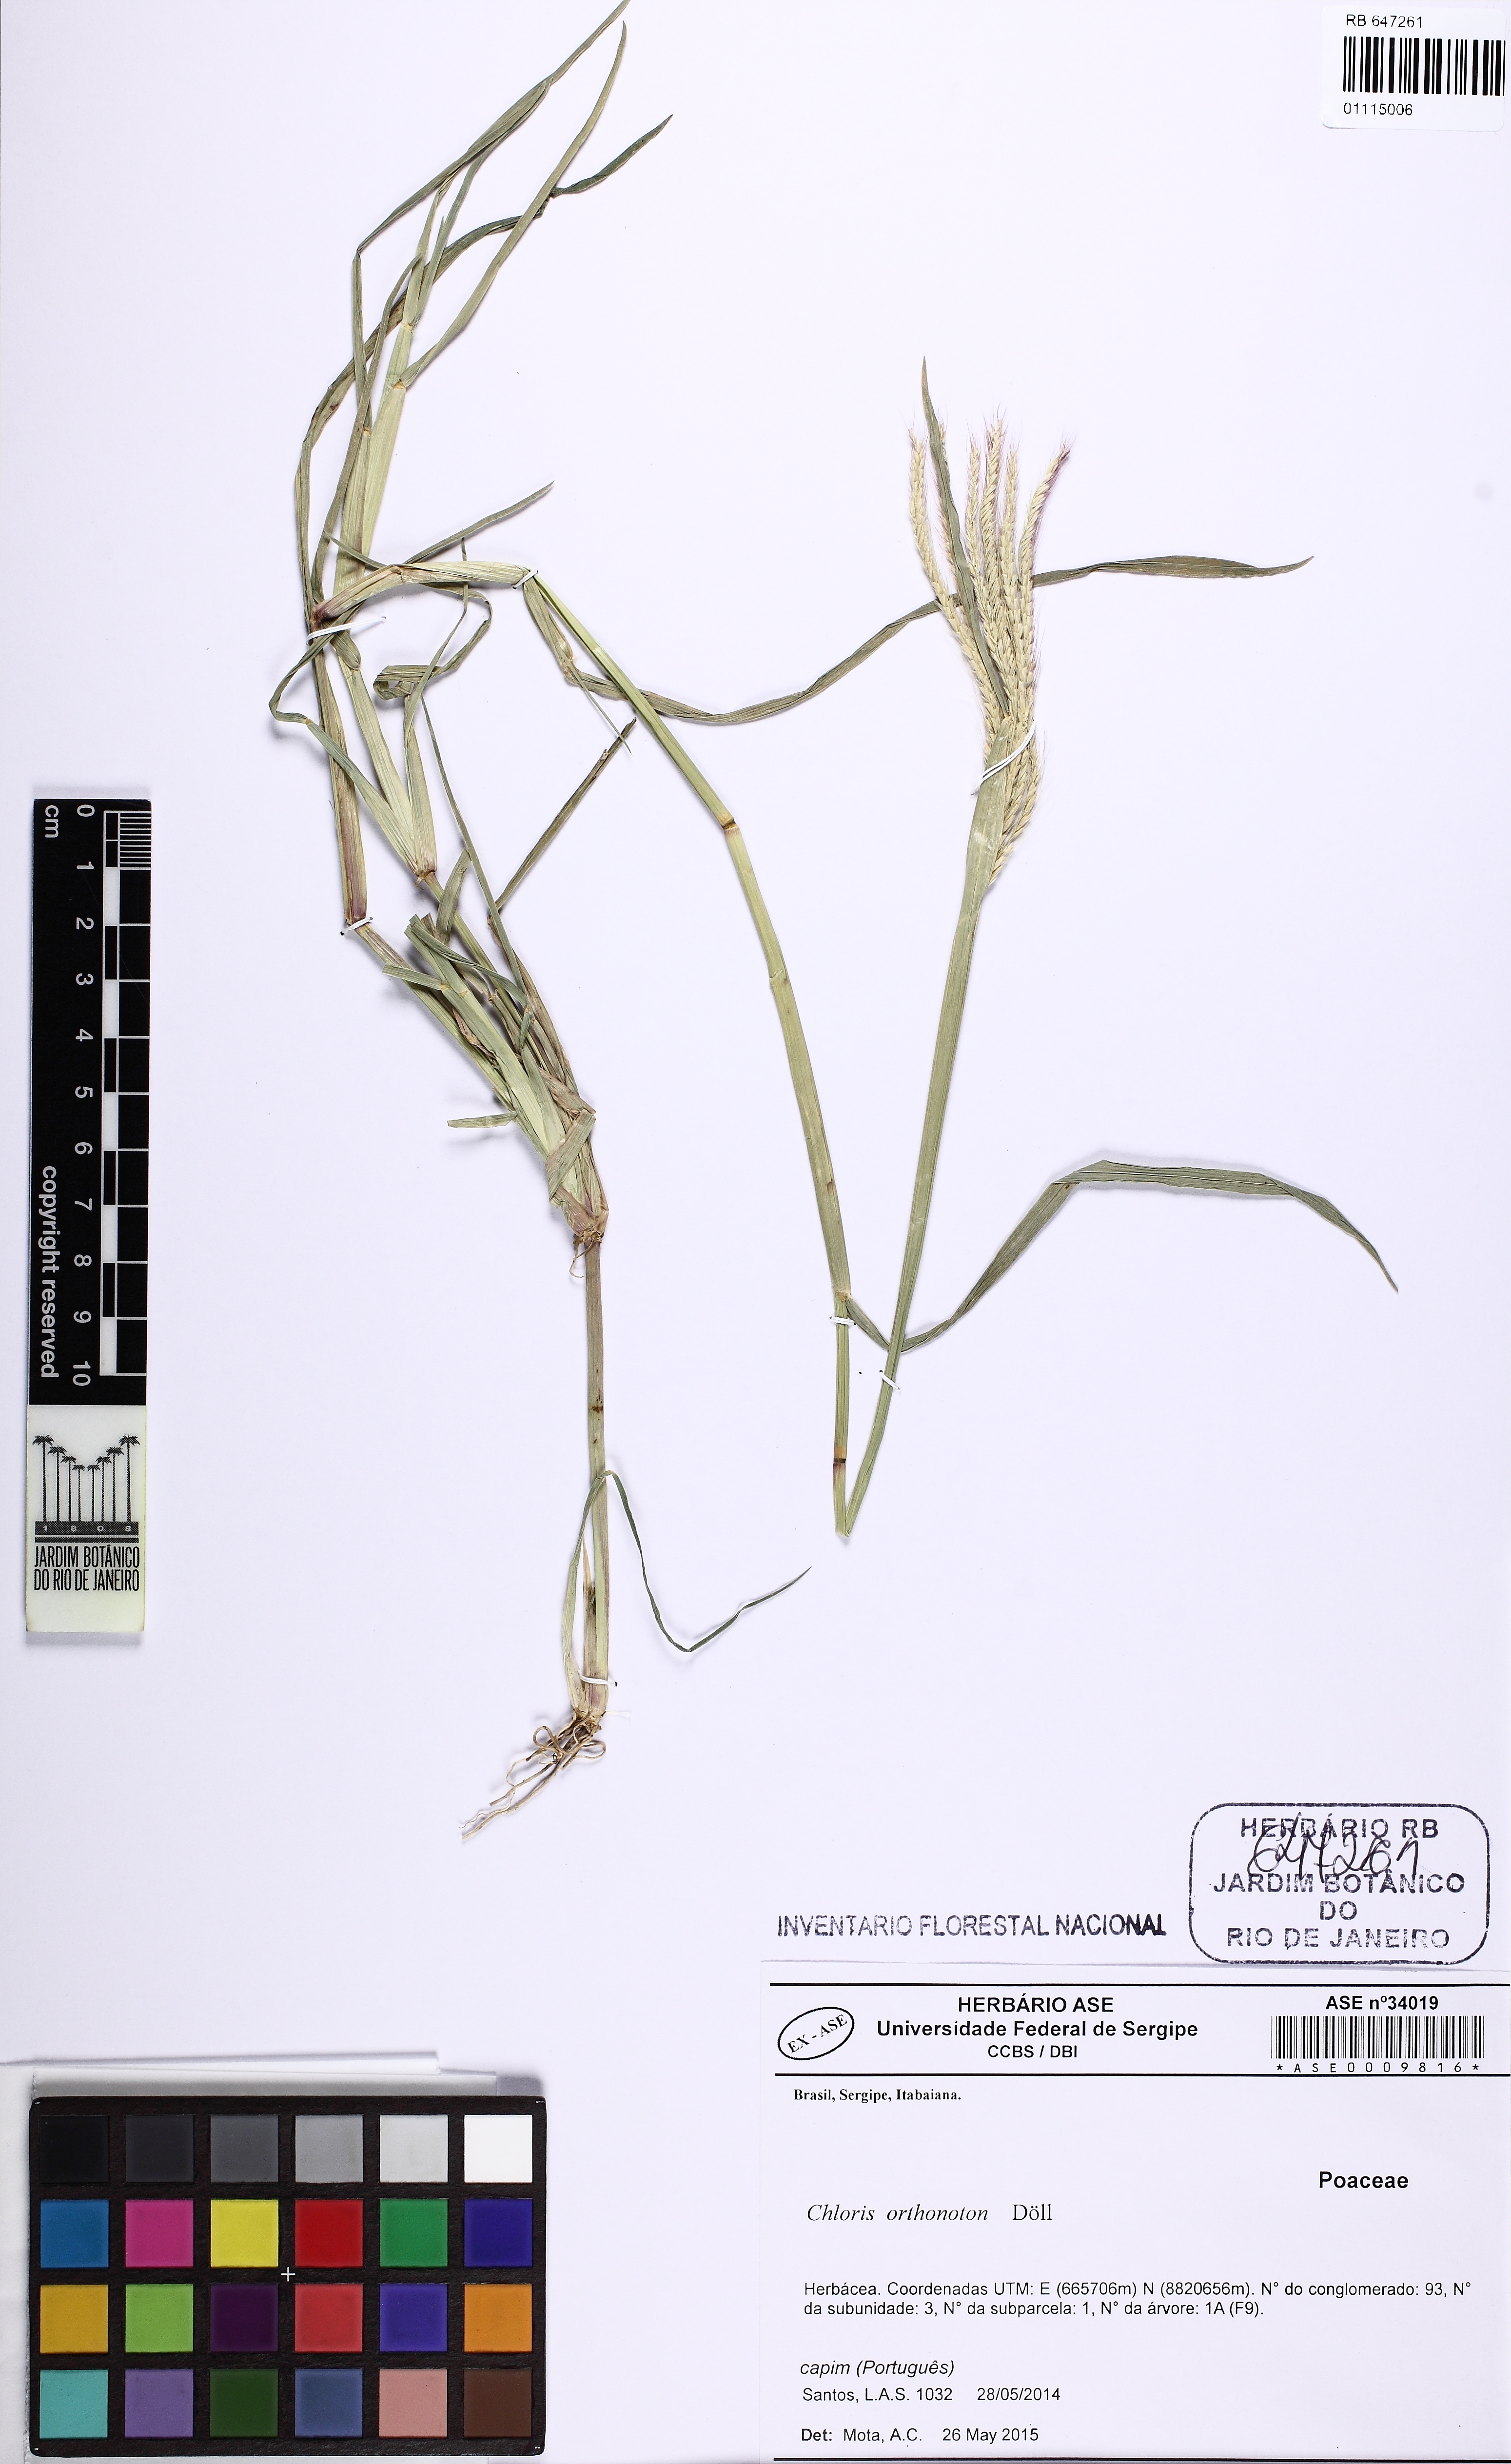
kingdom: Plantae
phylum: Tracheophyta
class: Liliopsida
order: Poales
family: Poaceae
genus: Chloris
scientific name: Chloris orthonoton
